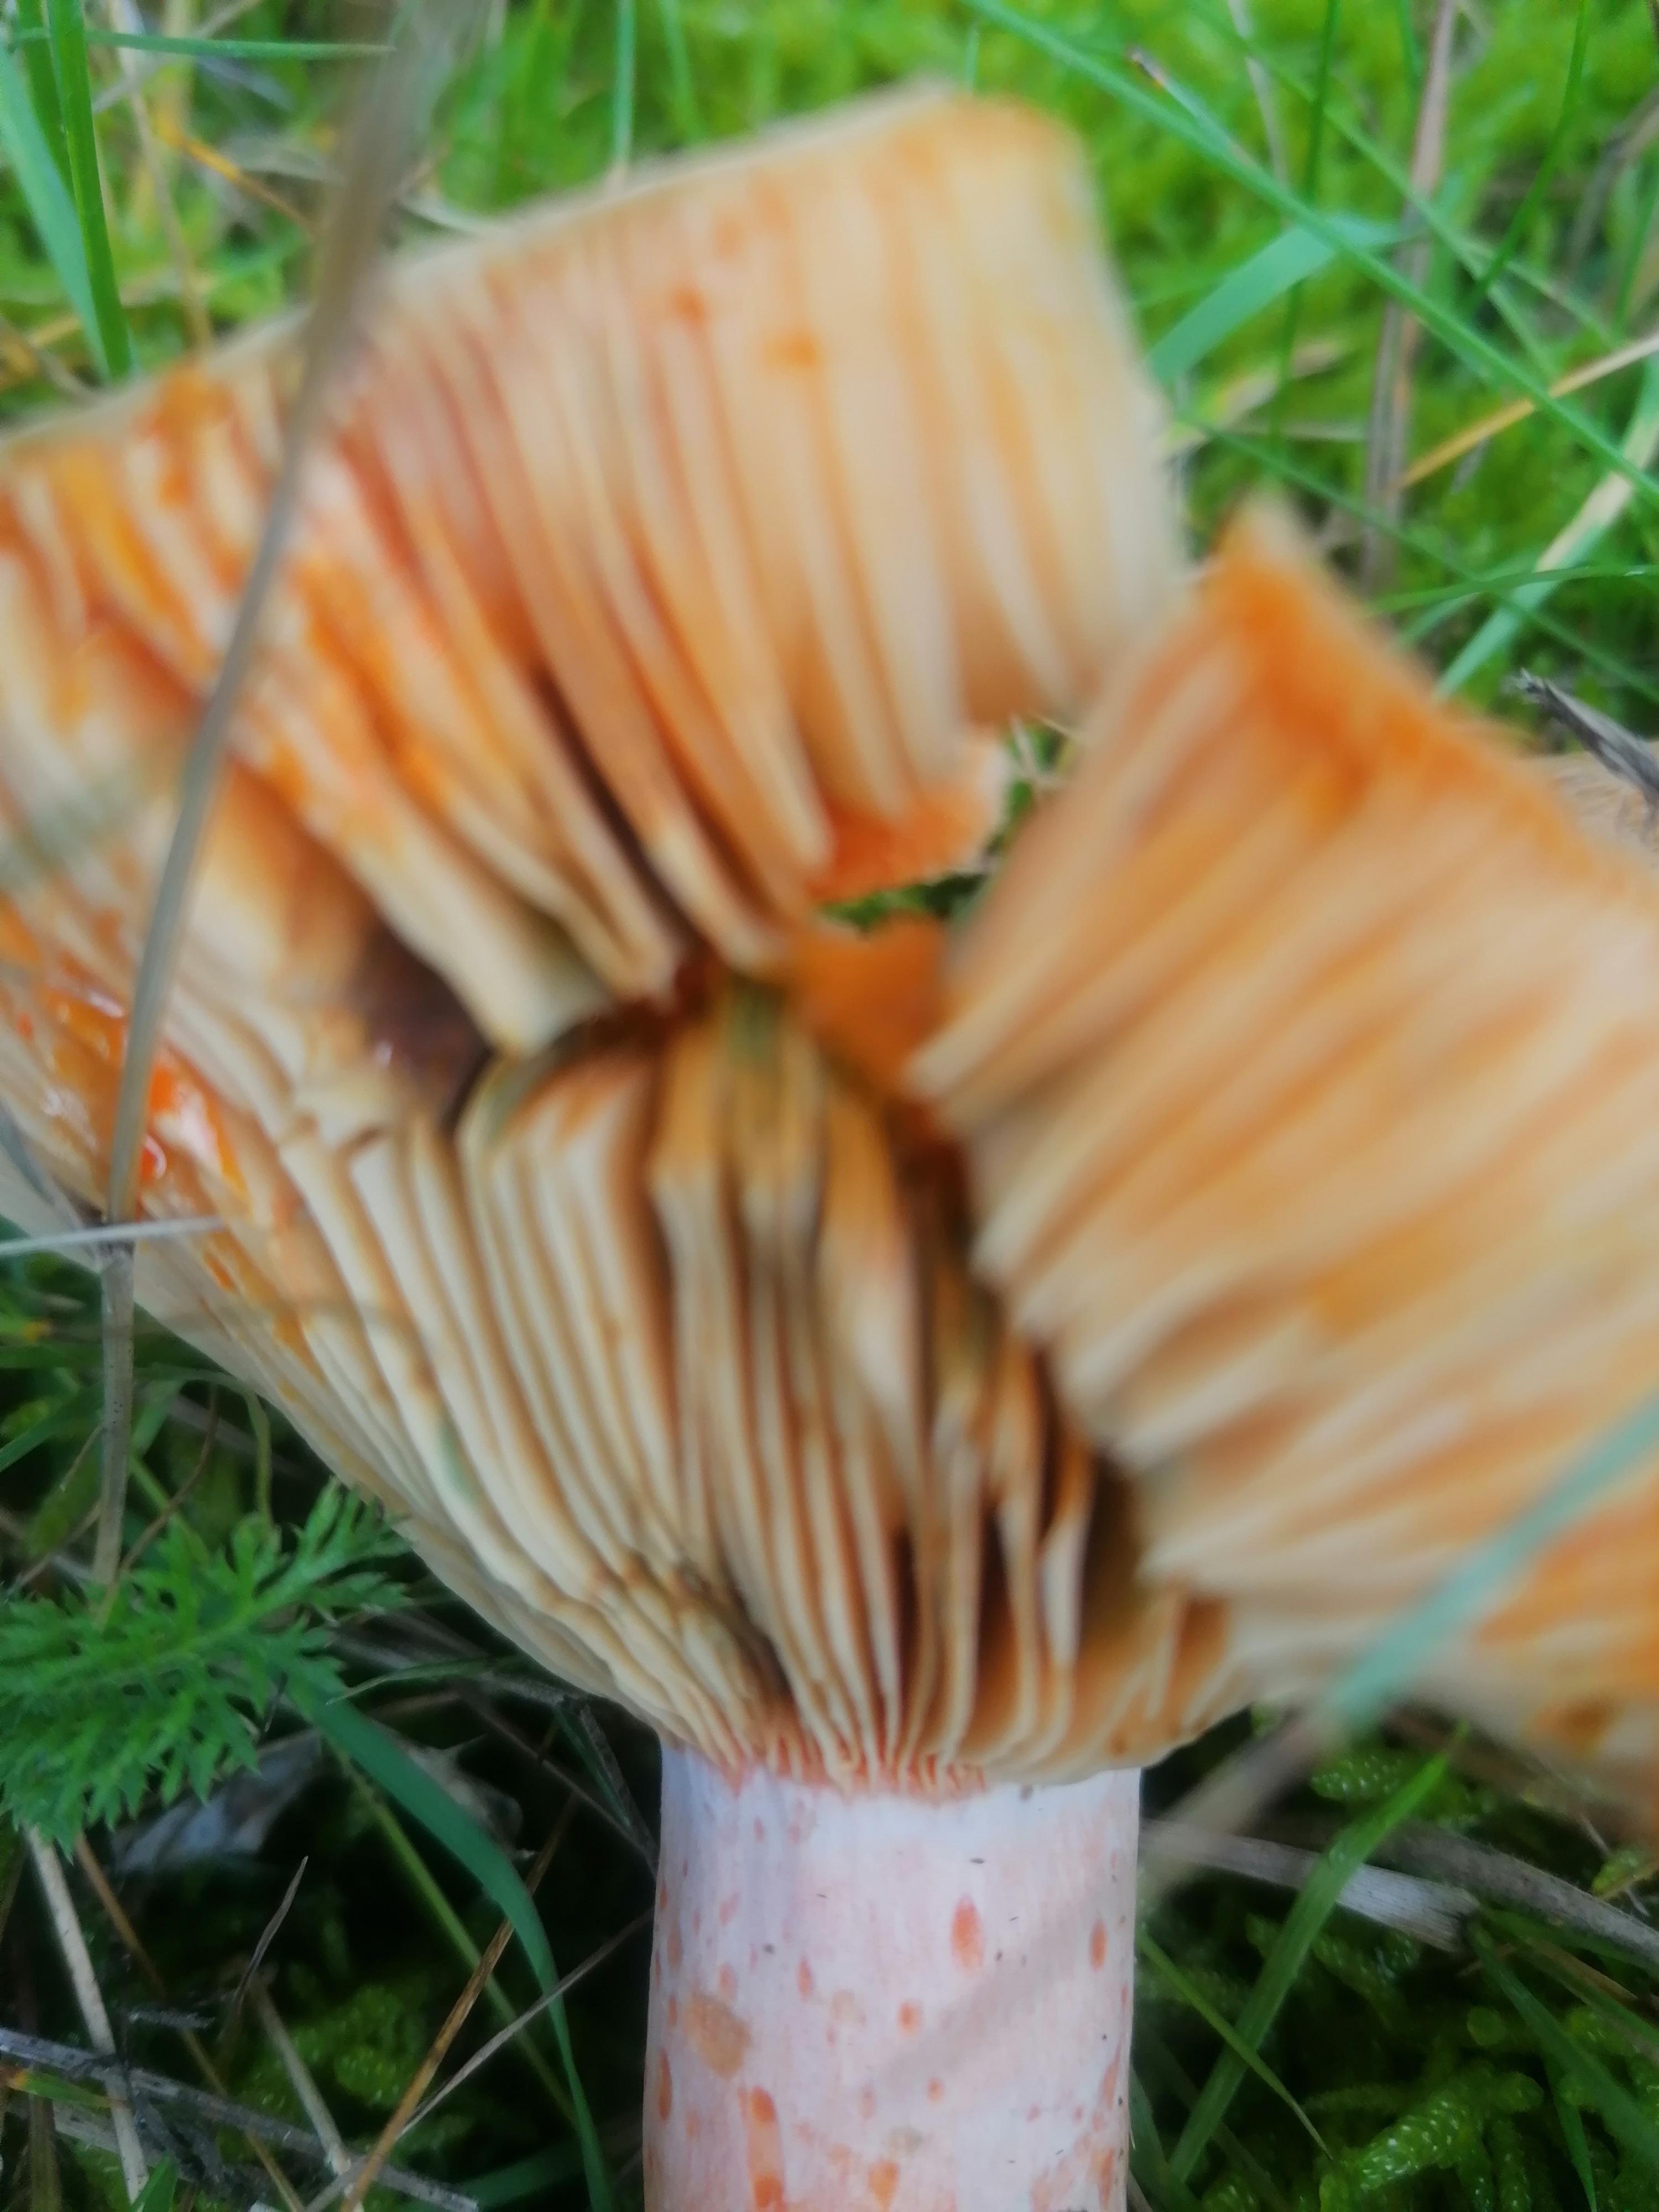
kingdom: Fungi
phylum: Basidiomycota
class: Agaricomycetes
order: Russulales
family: Russulaceae
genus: Lactarius
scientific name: Lactarius deliciosus
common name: velsmagende mælkehat
